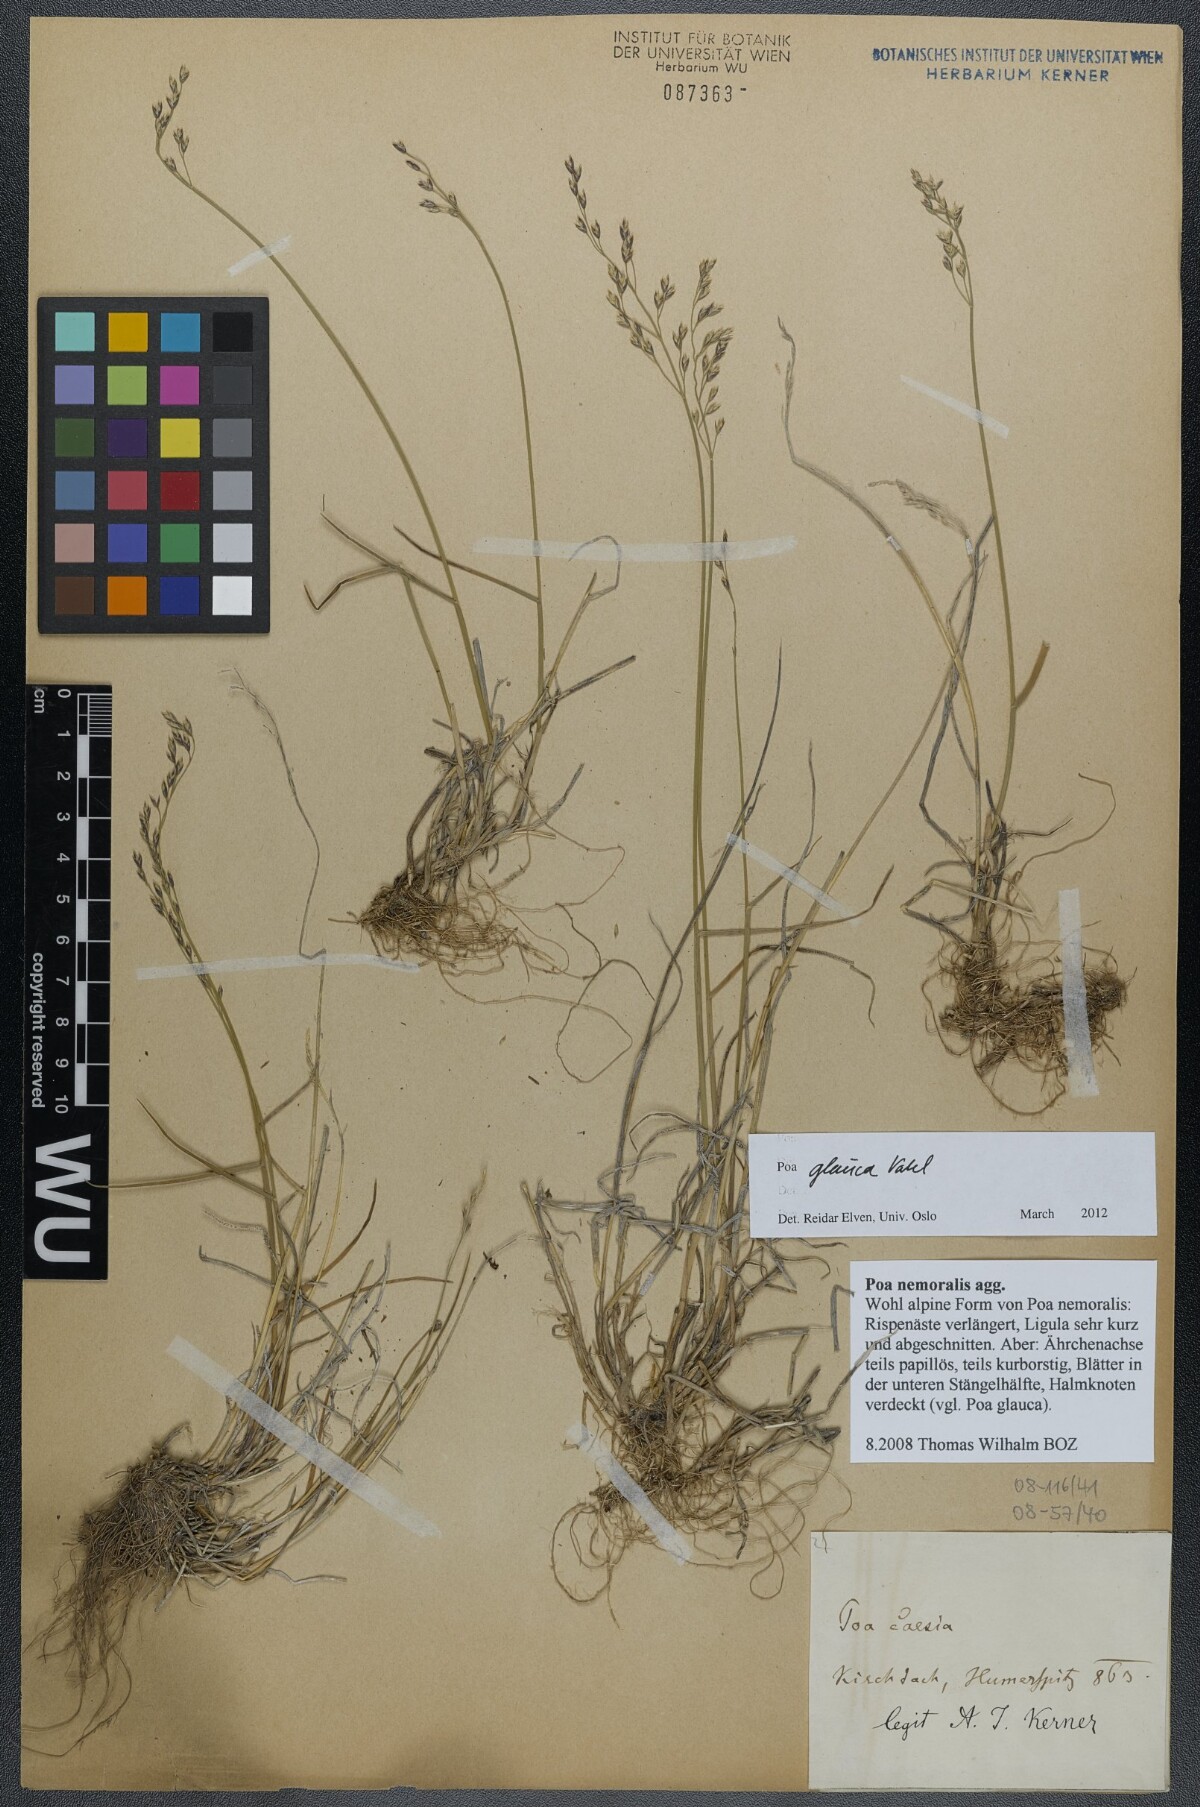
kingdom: Plantae
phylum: Tracheophyta
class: Liliopsida
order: Poales
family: Poaceae
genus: Poa
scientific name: Poa glauca
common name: Glaucous bluegrass
